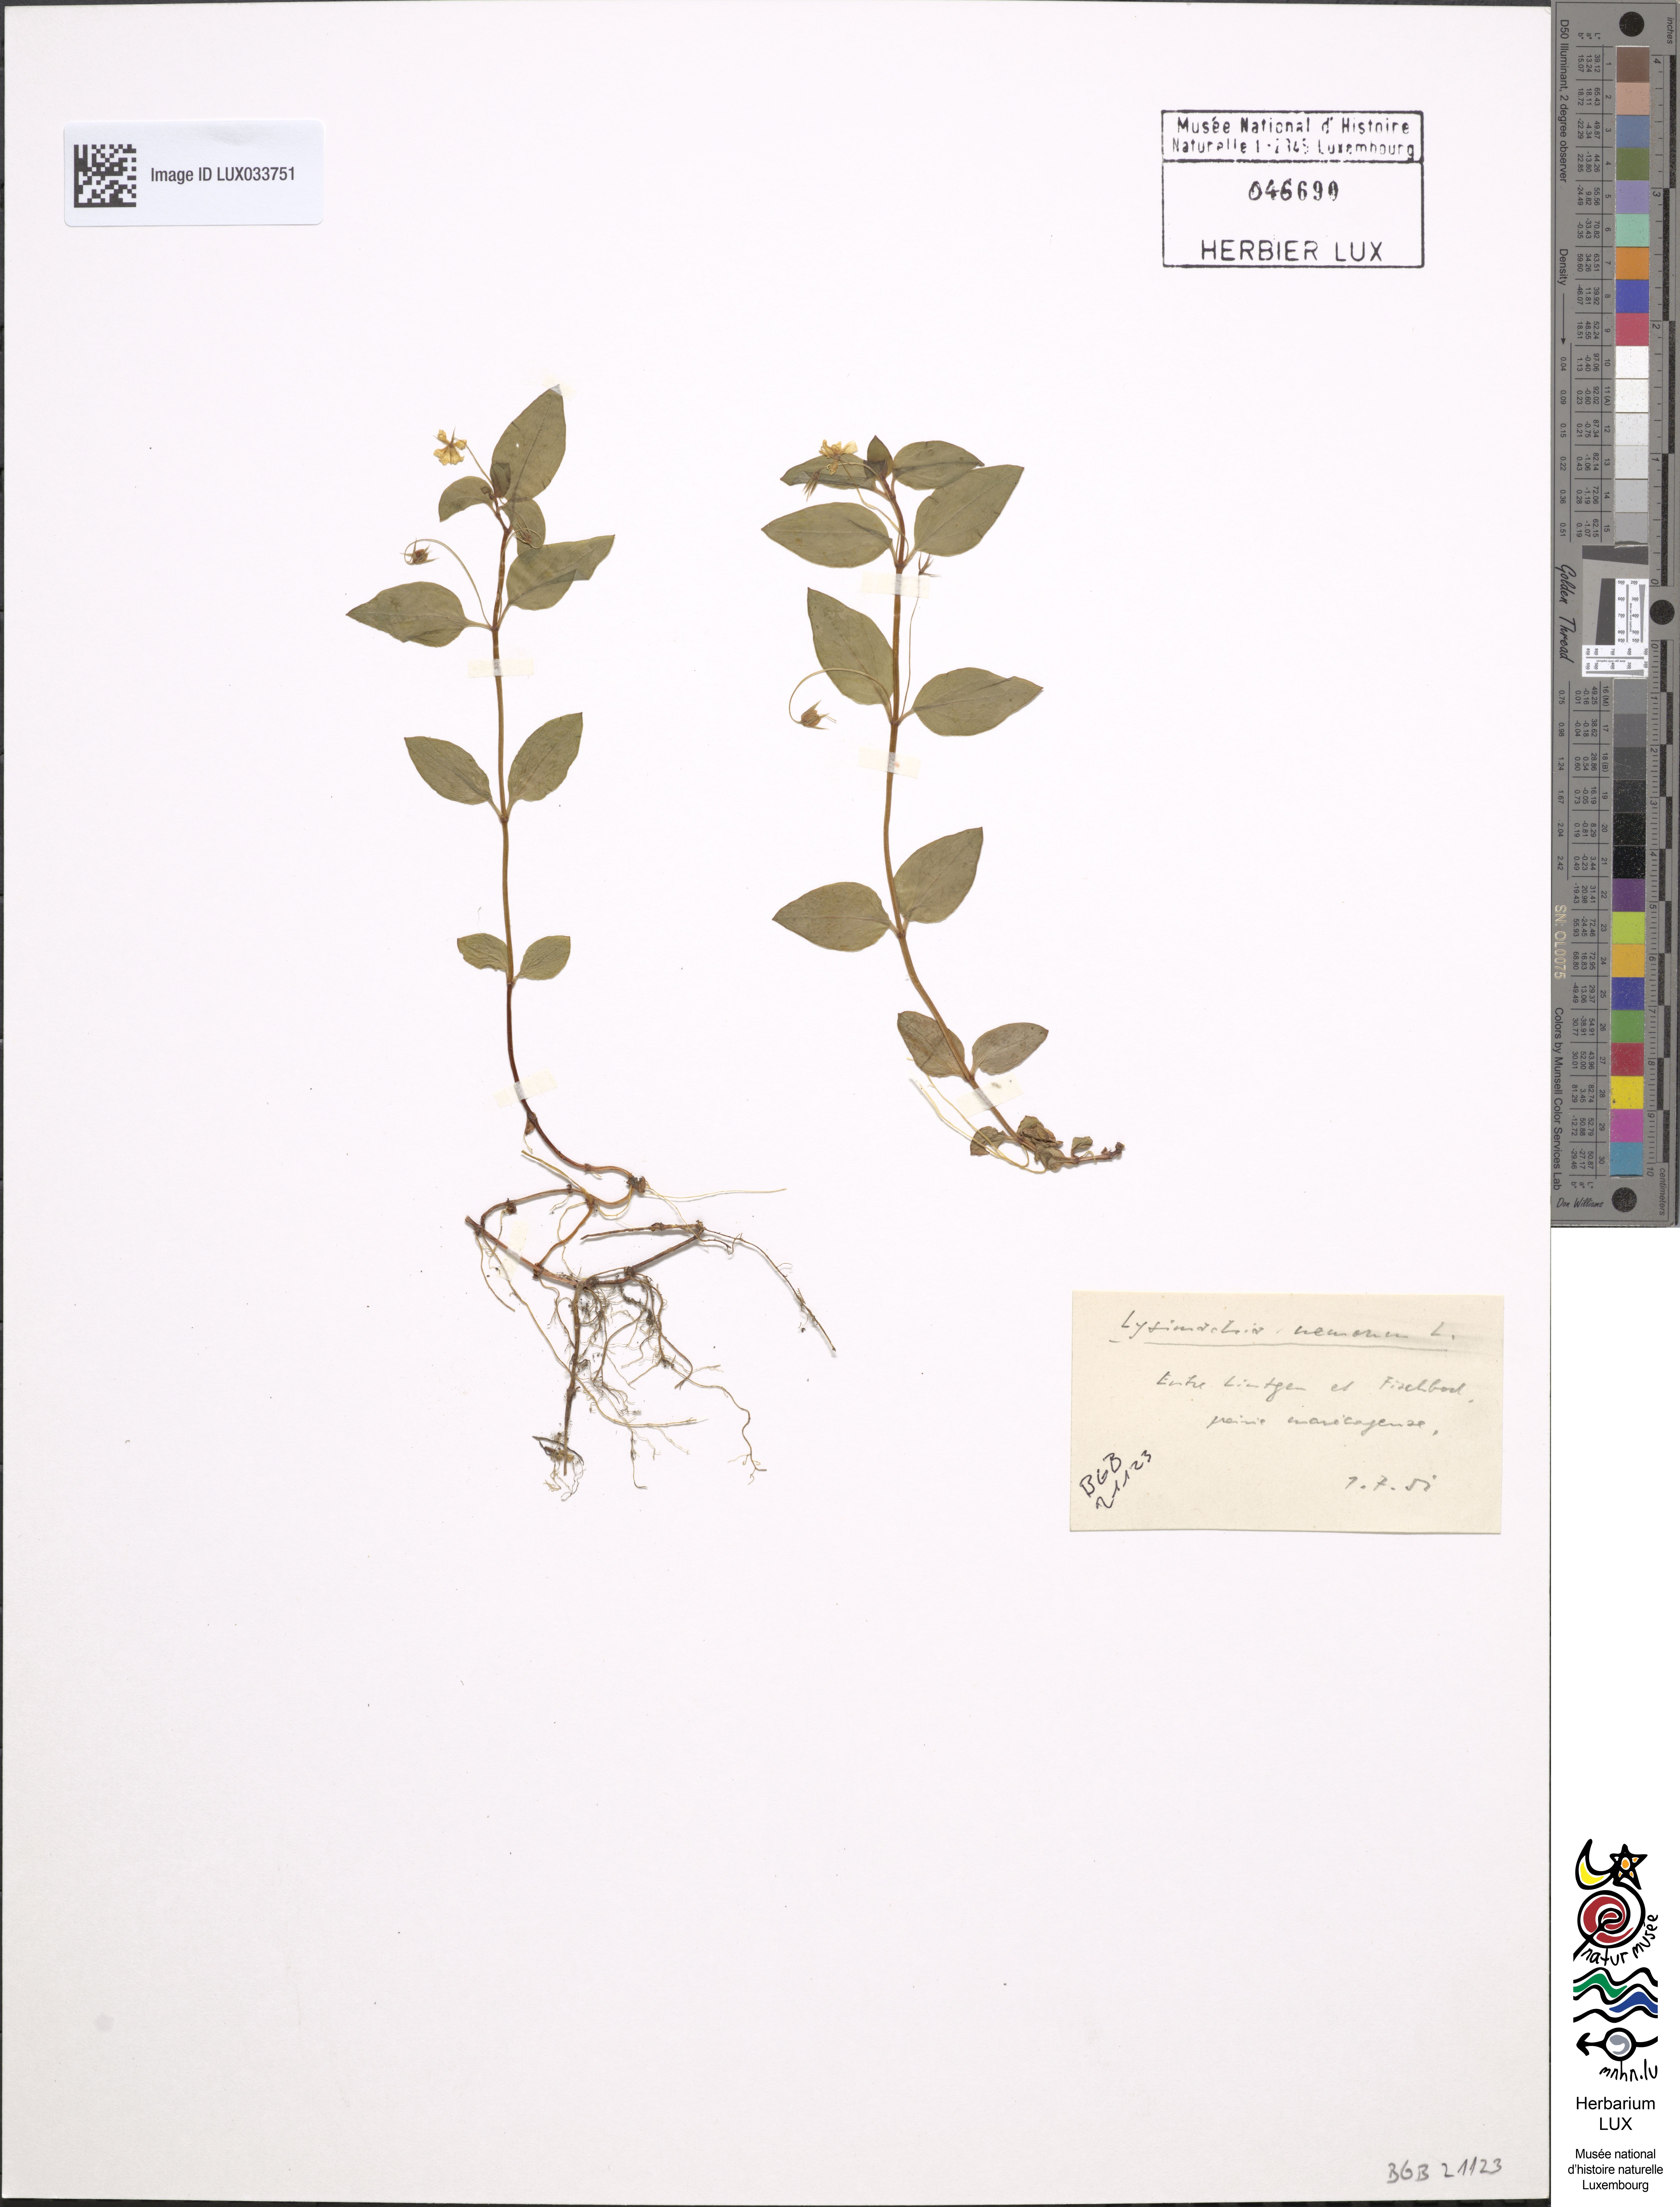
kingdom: Plantae
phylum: Tracheophyta
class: Magnoliopsida
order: Ericales
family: Primulaceae
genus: Lysimachia
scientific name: Lysimachia nemorum
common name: Yellow pimpernel
